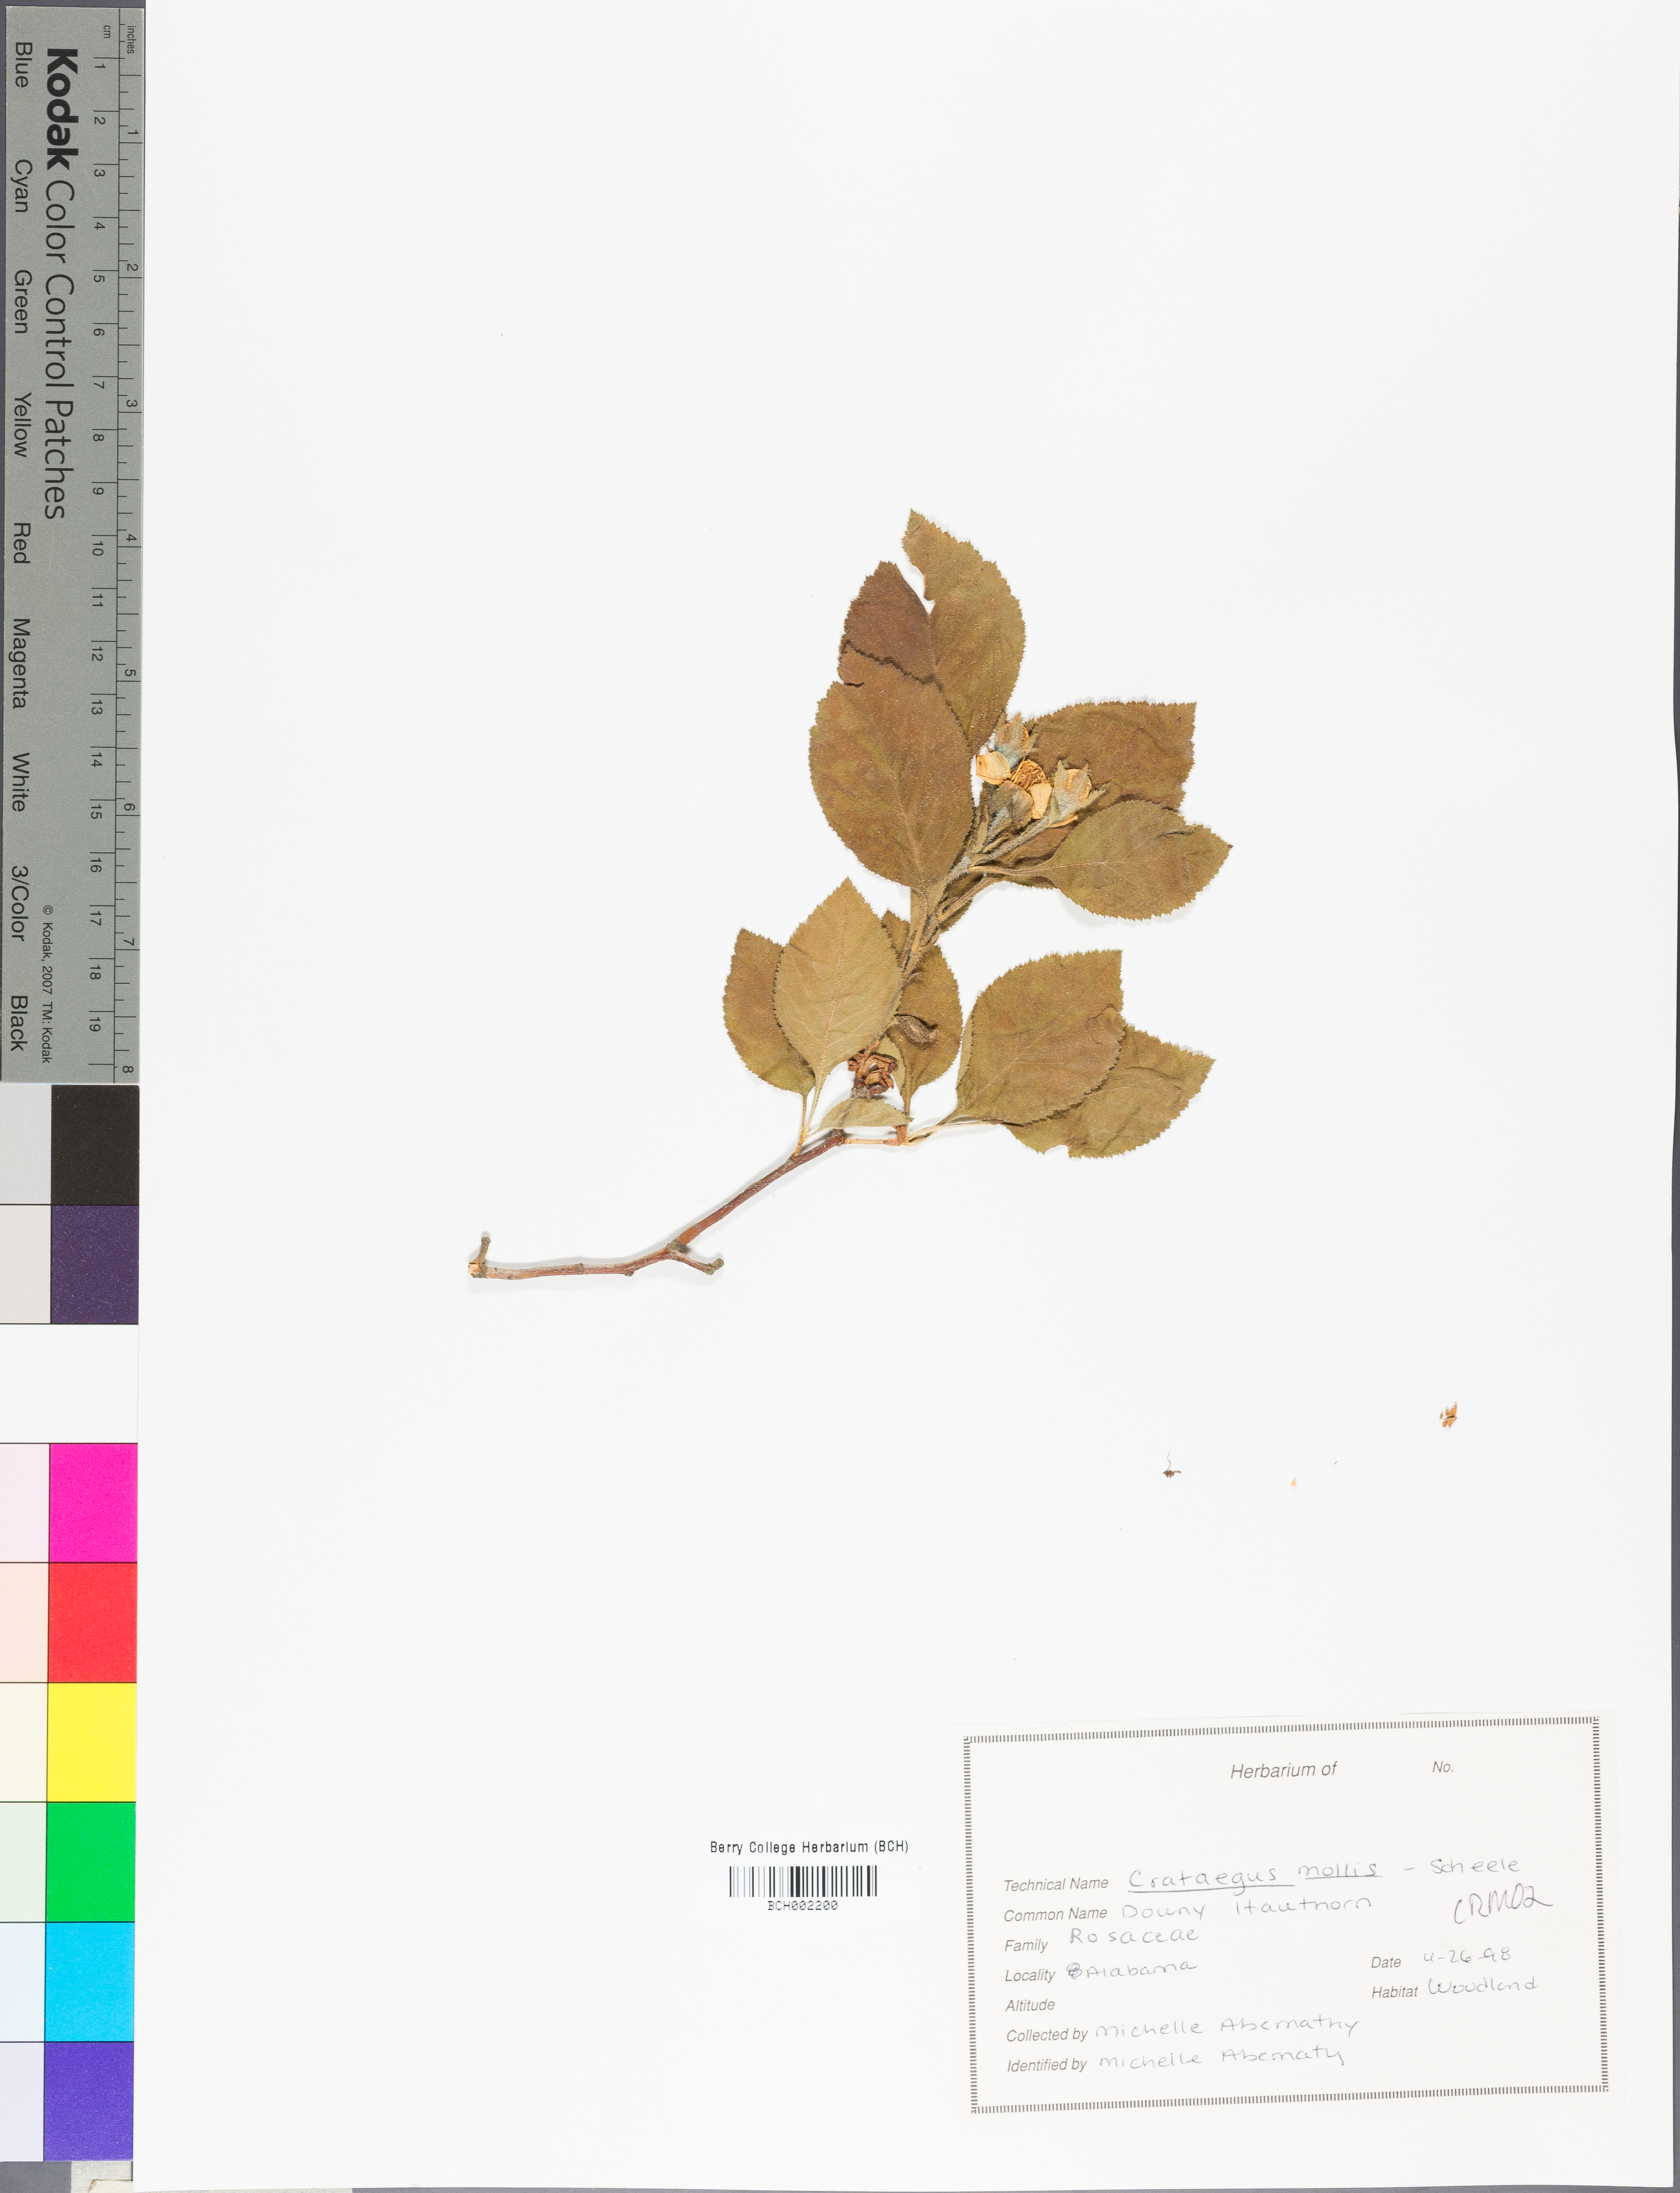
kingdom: Plantae
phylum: Tracheophyta
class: Magnoliopsida
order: Rosales
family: Rosaceae
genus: Crataegus
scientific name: Crataegus mollis
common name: Downy hawthorn
